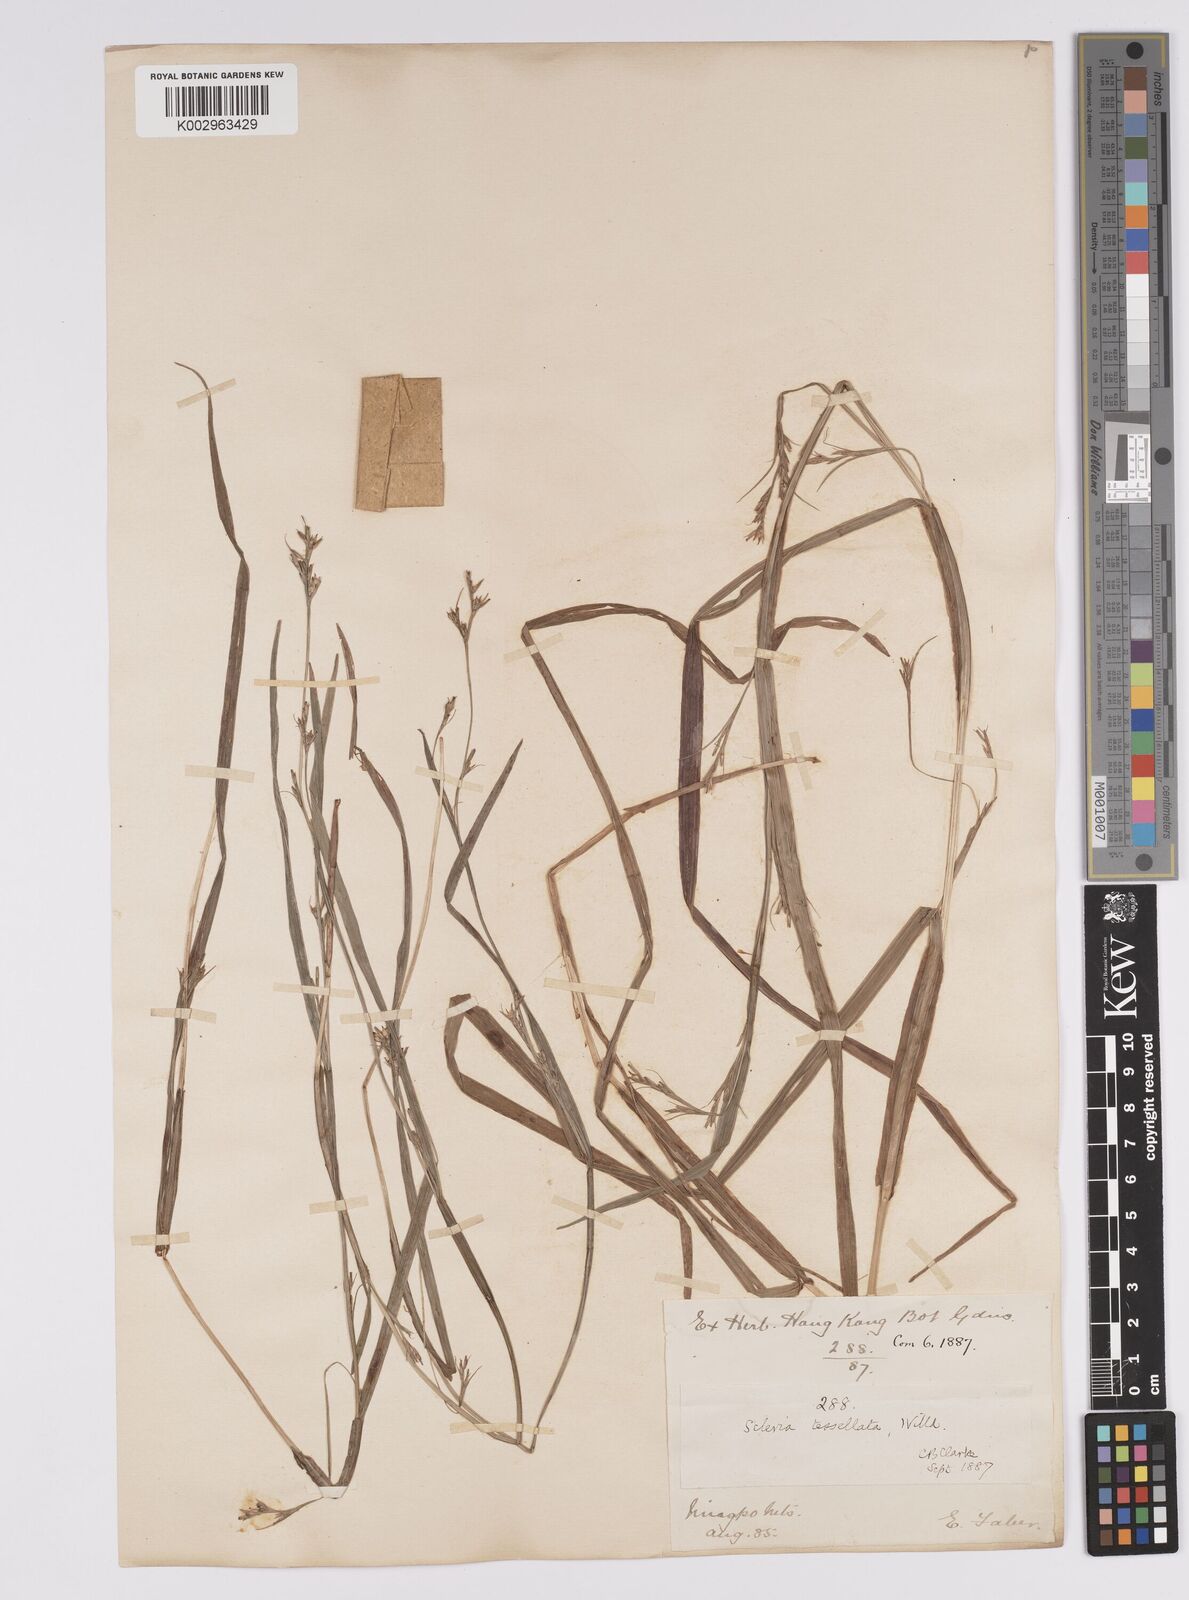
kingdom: Plantae
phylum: Tracheophyta
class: Liliopsida
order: Poales
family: Cyperaceae
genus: Scleria
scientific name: Scleria tessellata
